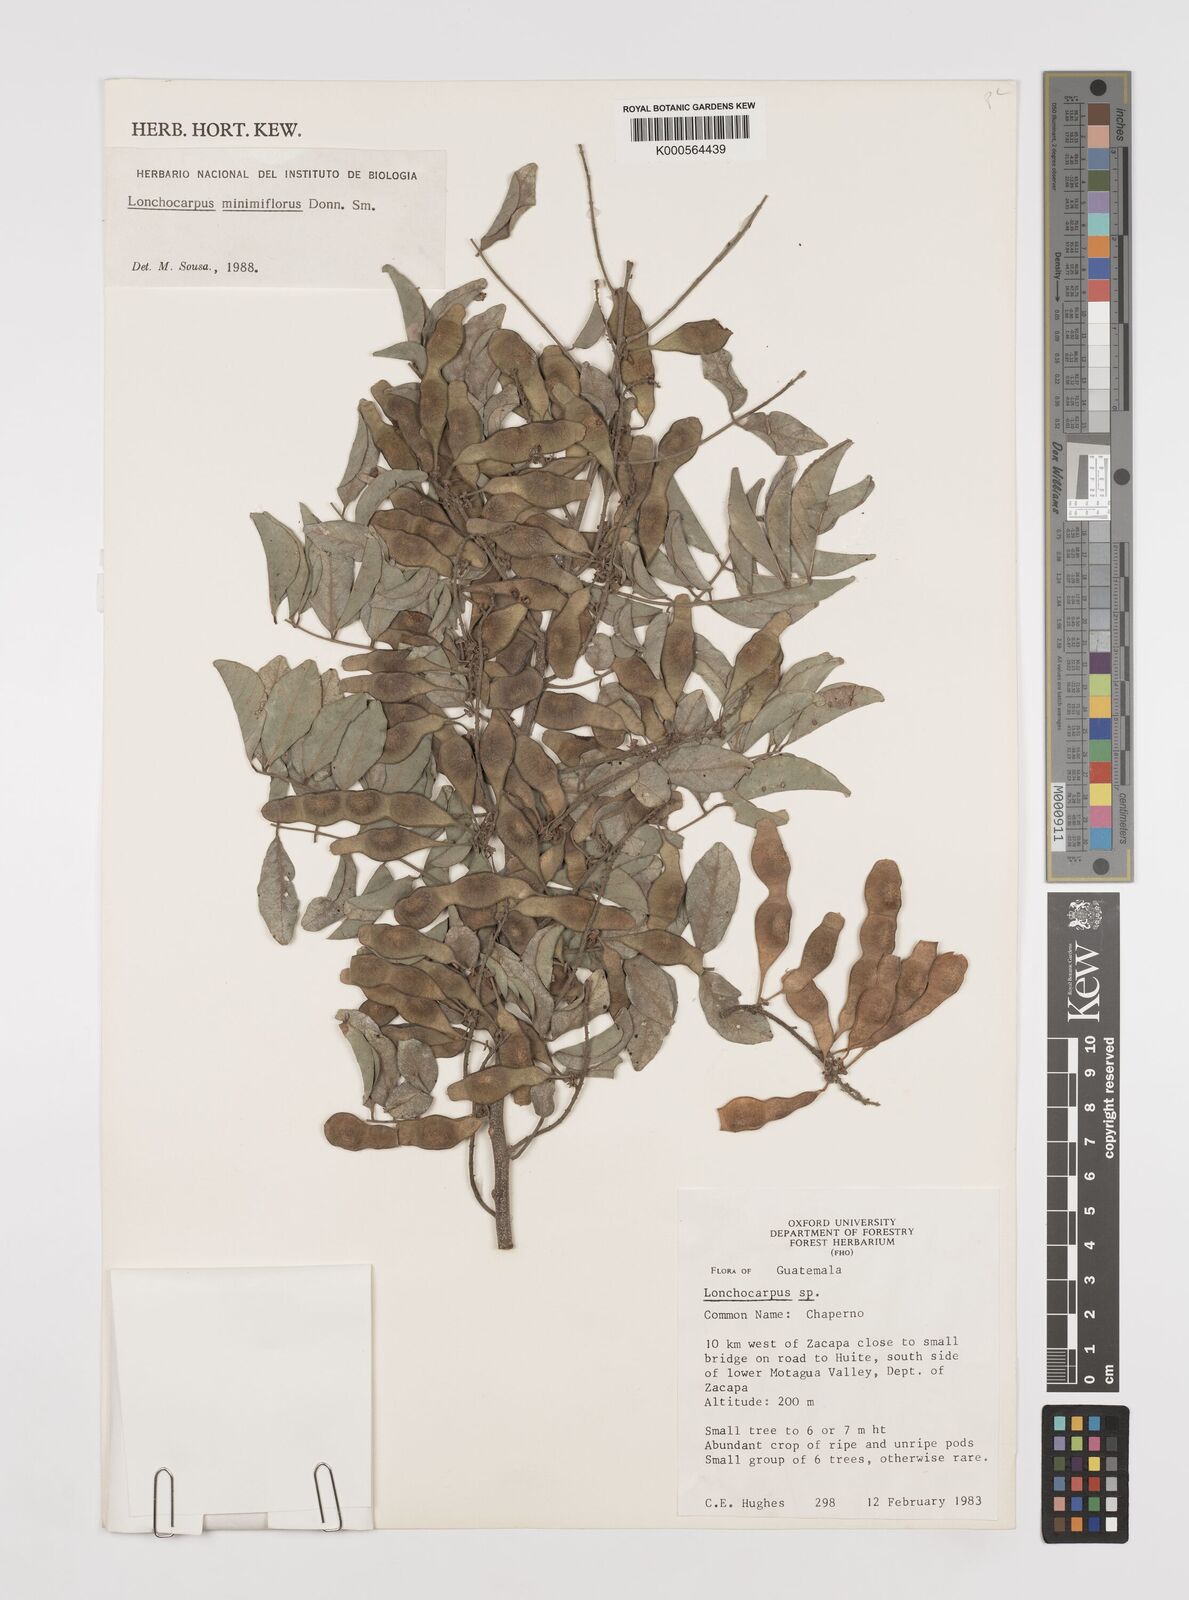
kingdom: Plantae
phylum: Tracheophyta
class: Magnoliopsida
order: Fabales
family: Fabaceae
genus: Lonchocarpus
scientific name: Lonchocarpus minimiflorus
